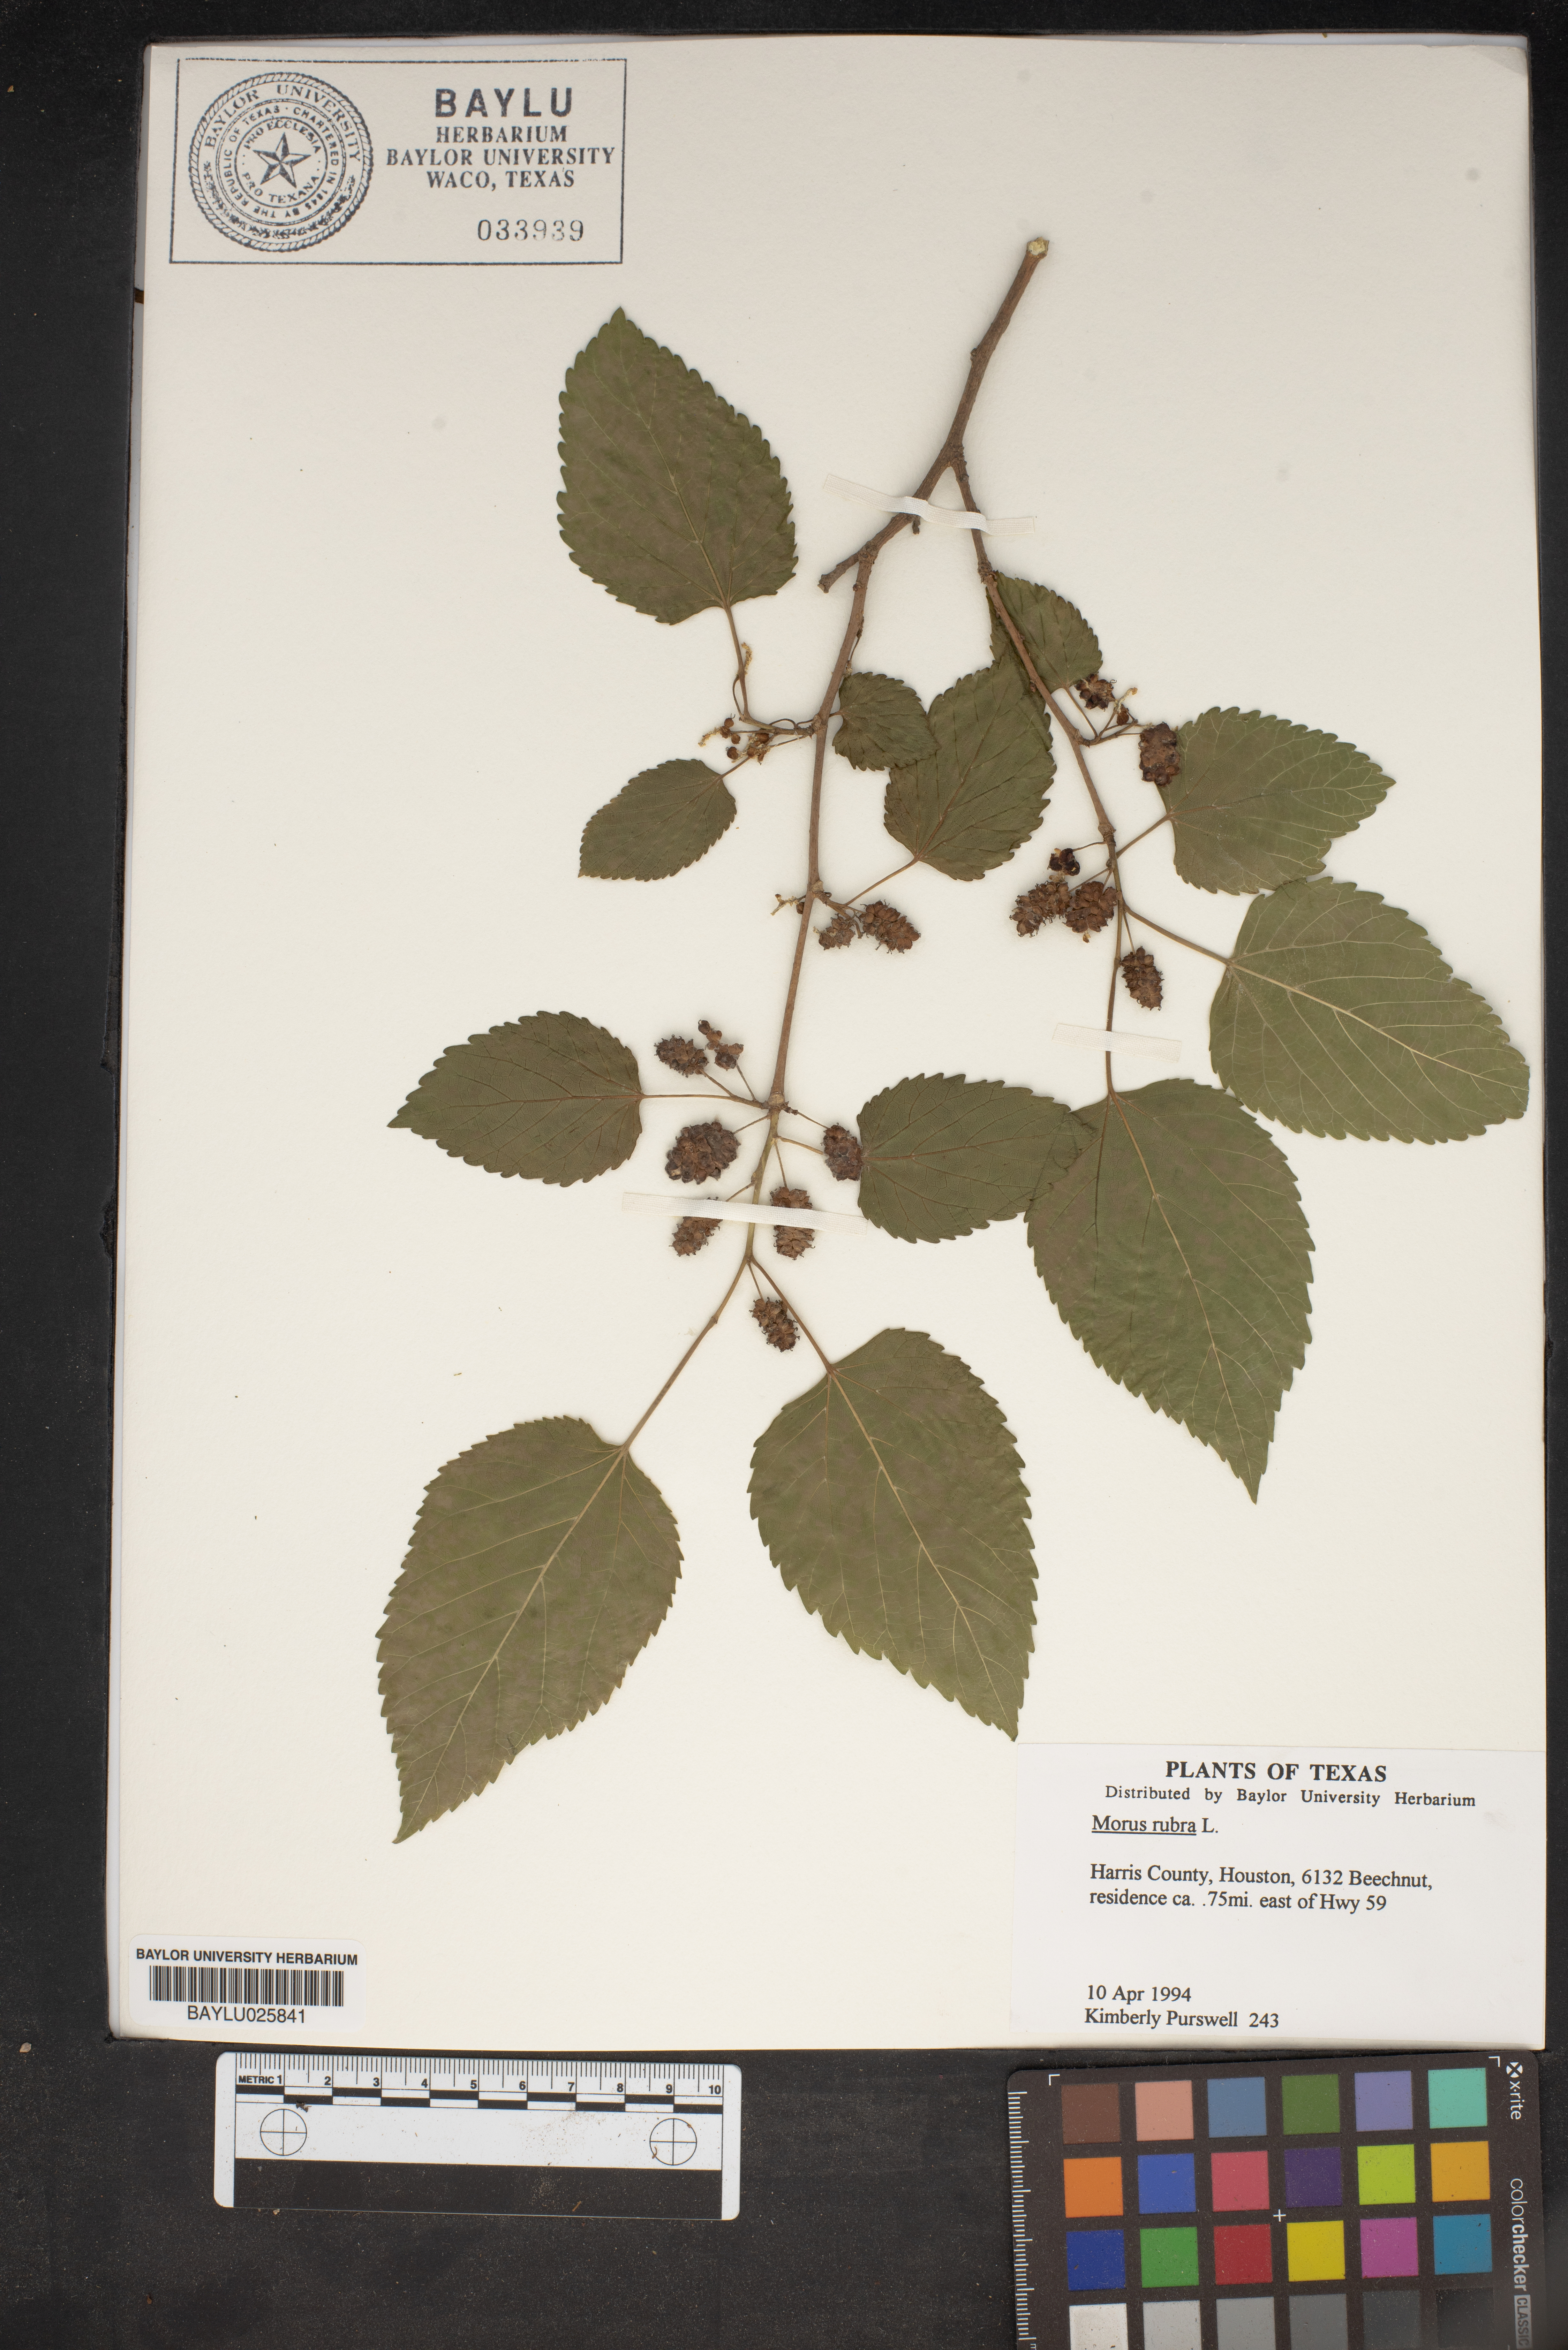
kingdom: Plantae
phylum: Tracheophyta
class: Magnoliopsida
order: Rosales
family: Moraceae
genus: Morus
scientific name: Morus rubra
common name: Red mulberry
